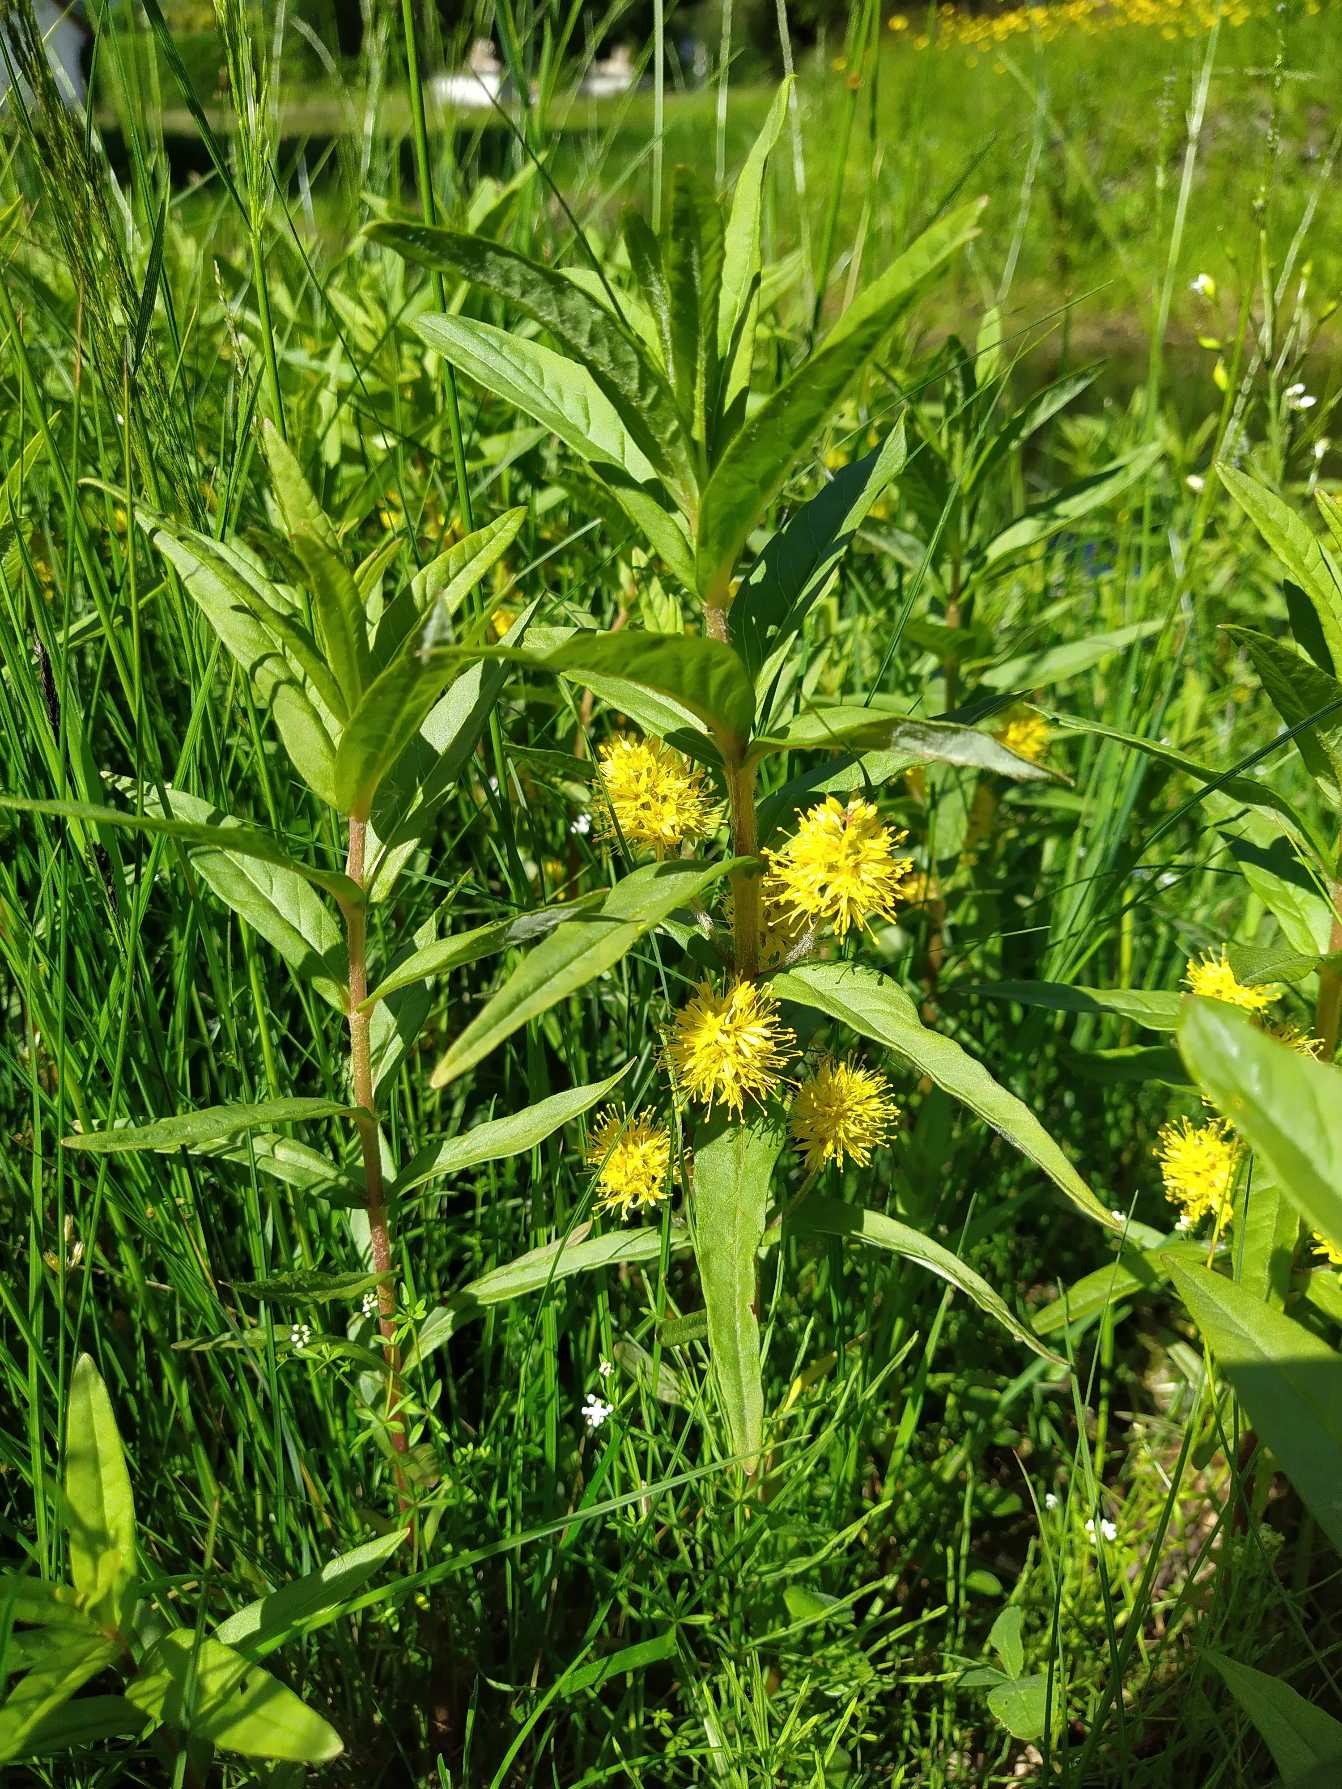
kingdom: Plantae
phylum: Tracheophyta
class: Magnoliopsida
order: Ericales
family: Primulaceae
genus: Lysimachia
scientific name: Lysimachia thyrsiflora
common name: Dusk-fredløs
